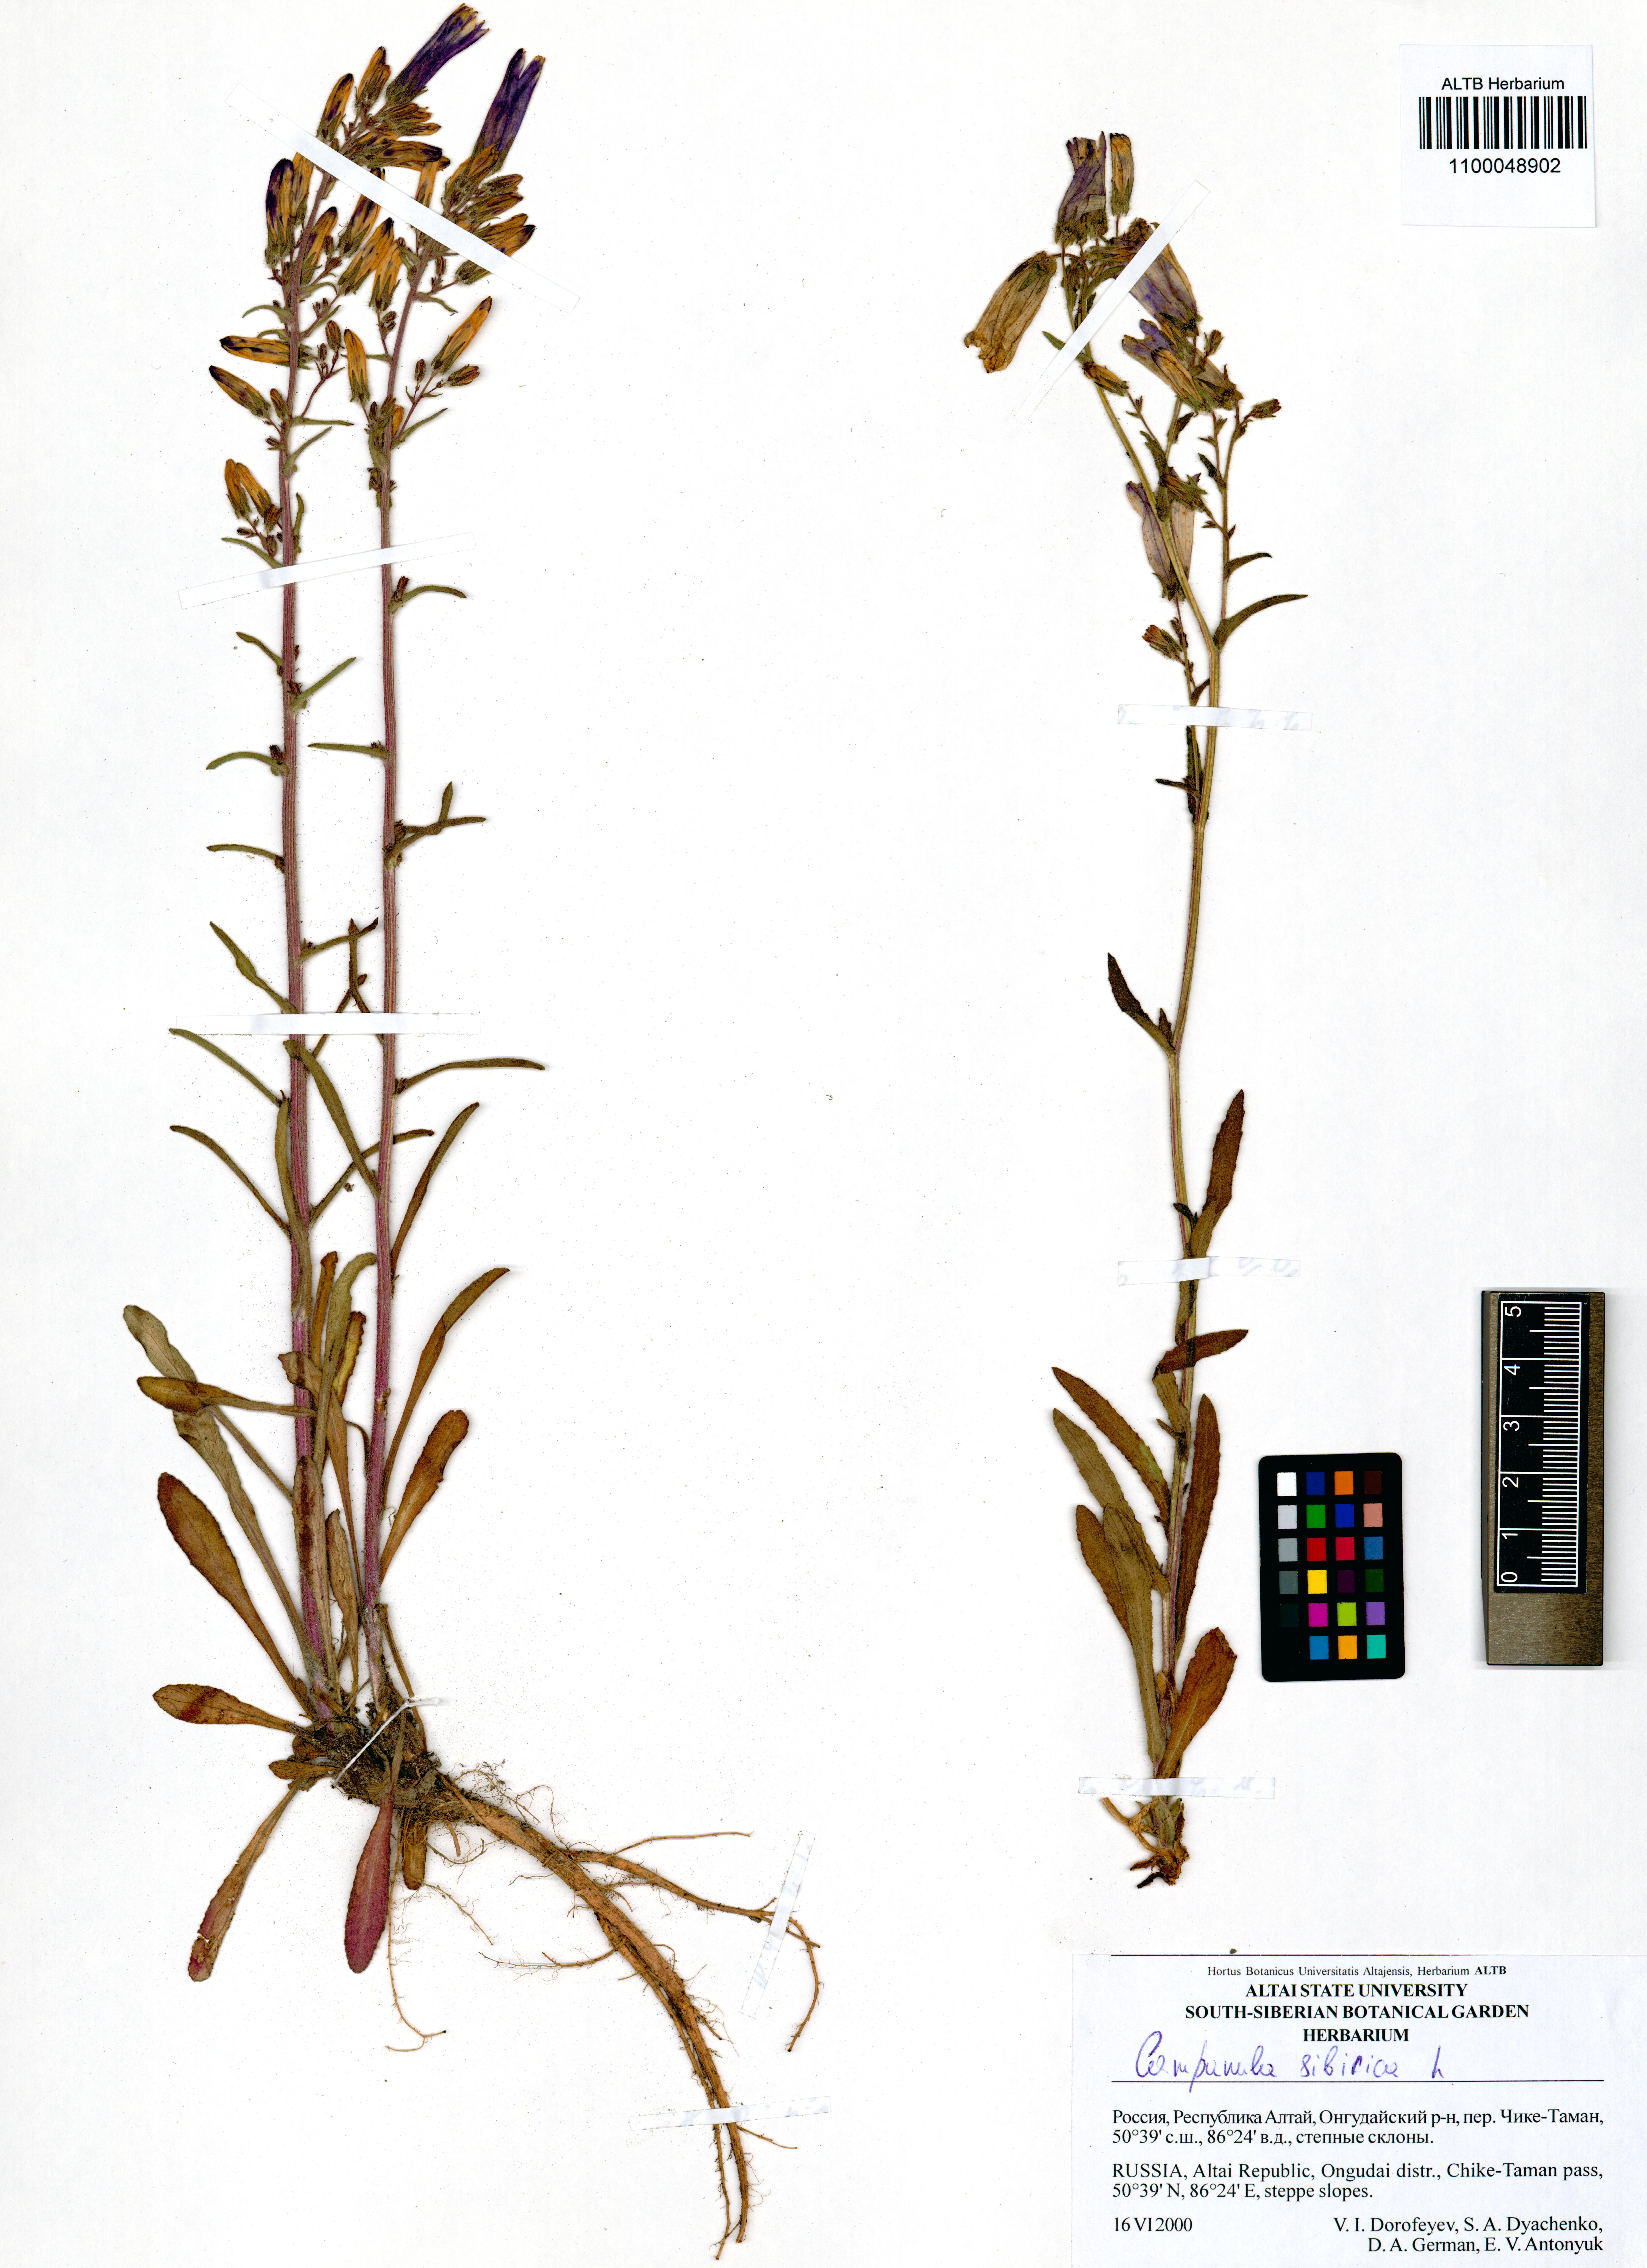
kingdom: Plantae
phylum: Tracheophyta
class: Magnoliopsida
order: Asterales
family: Campanulaceae
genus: Campanula
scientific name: Campanula sibirica
